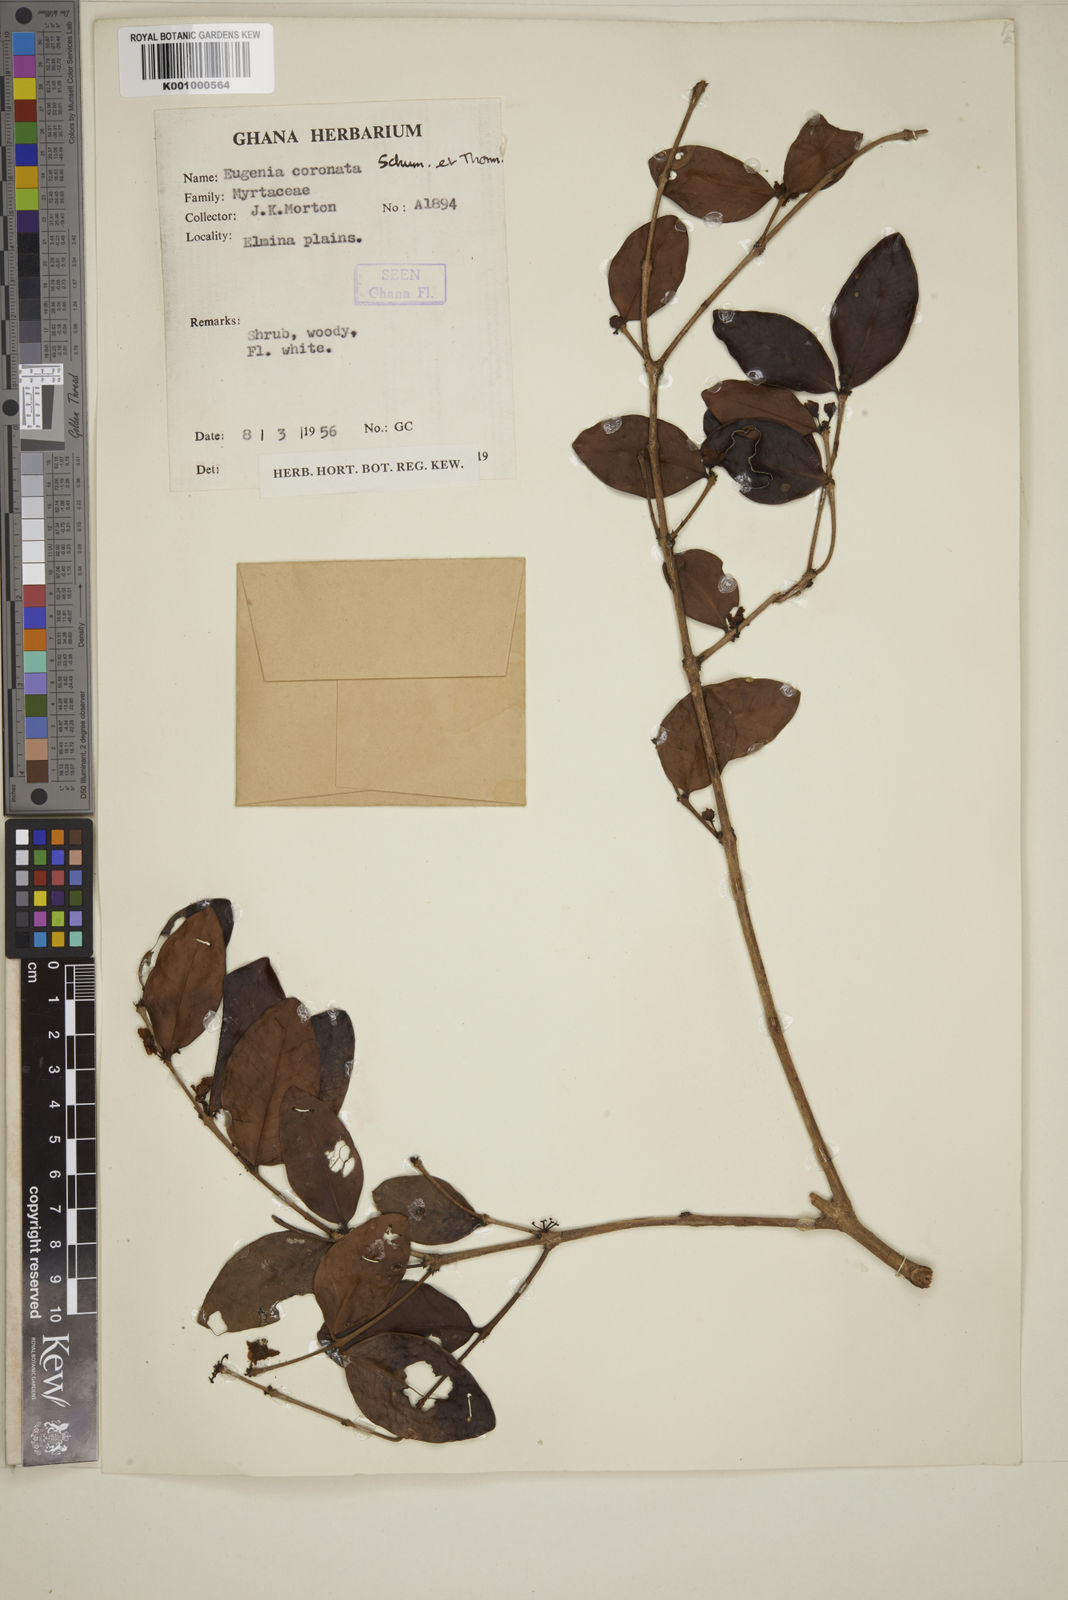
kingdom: Plantae
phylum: Tracheophyta
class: Magnoliopsida
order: Myrtales
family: Myrtaceae
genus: Eugenia
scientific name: Eugenia coronata
